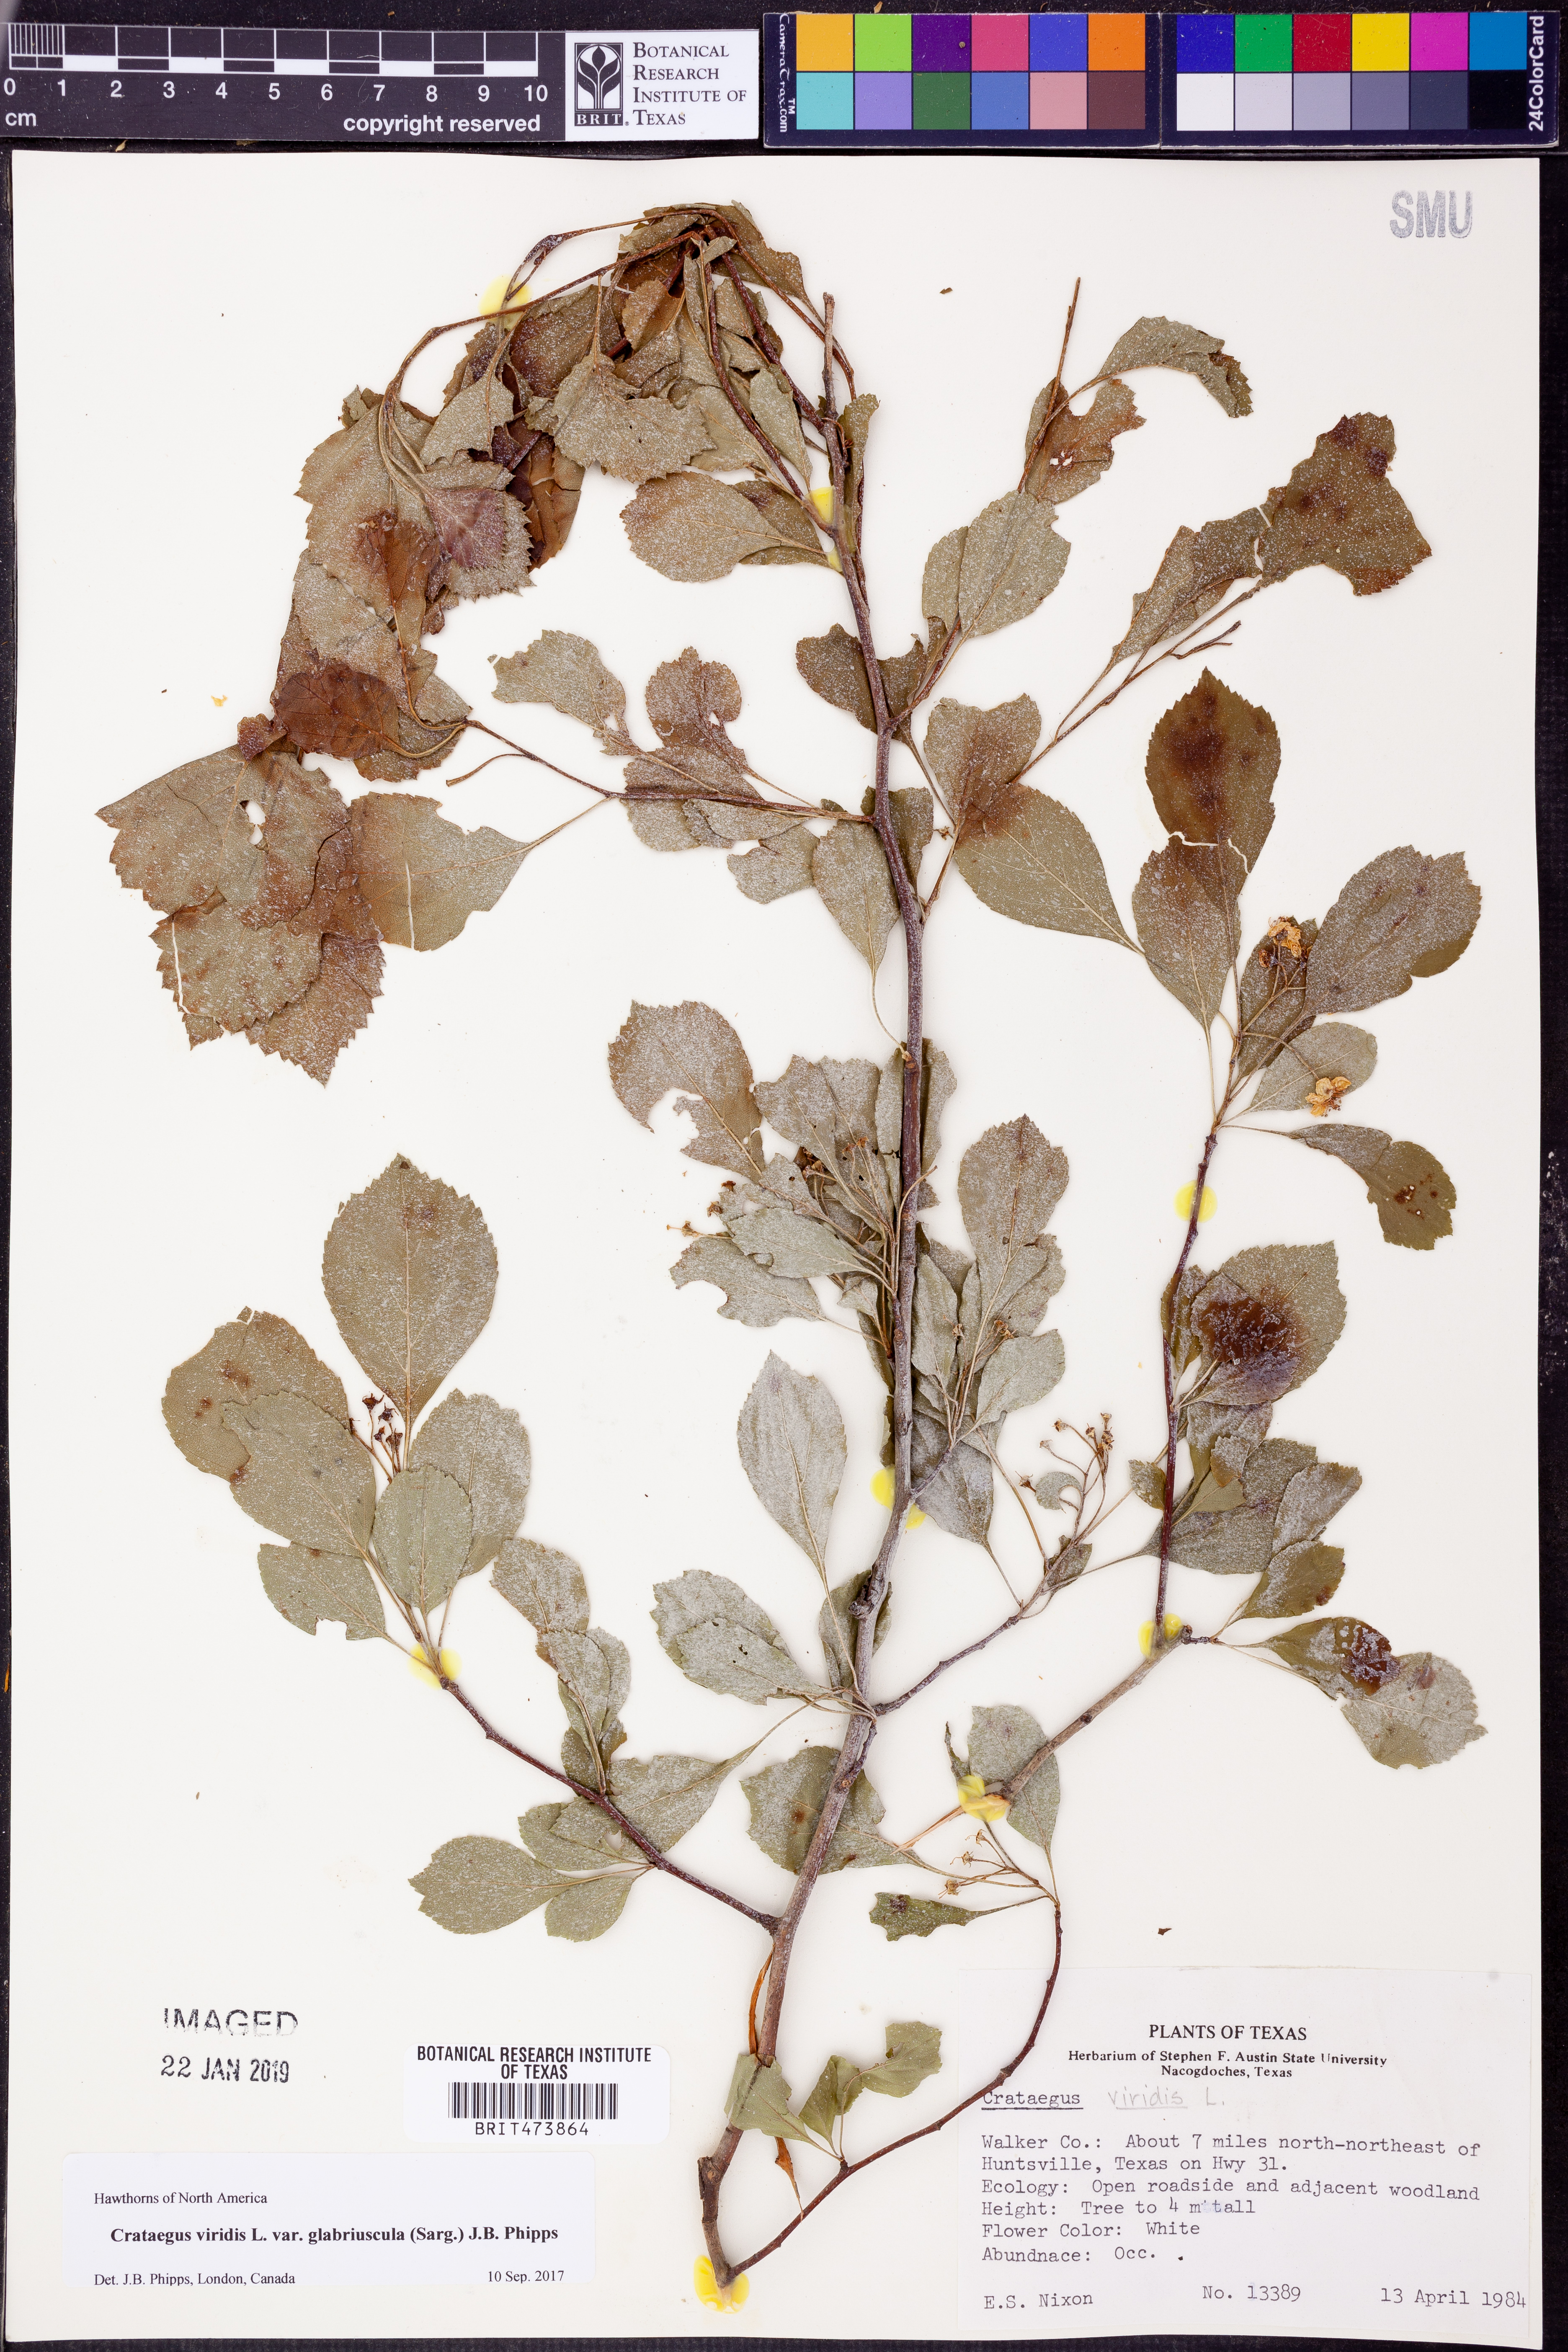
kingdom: Plantae
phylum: Tracheophyta
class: Magnoliopsida
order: Rosales
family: Rosaceae
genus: Crataegus
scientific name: Crataegus viridis
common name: Southernthorn
